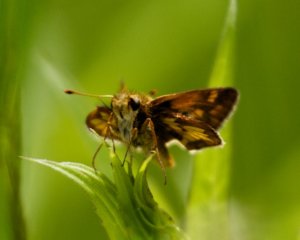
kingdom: Animalia
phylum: Arthropoda
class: Insecta
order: Lepidoptera
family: Hesperiidae
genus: Polites
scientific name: Polites coras
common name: Peck's Skipper
